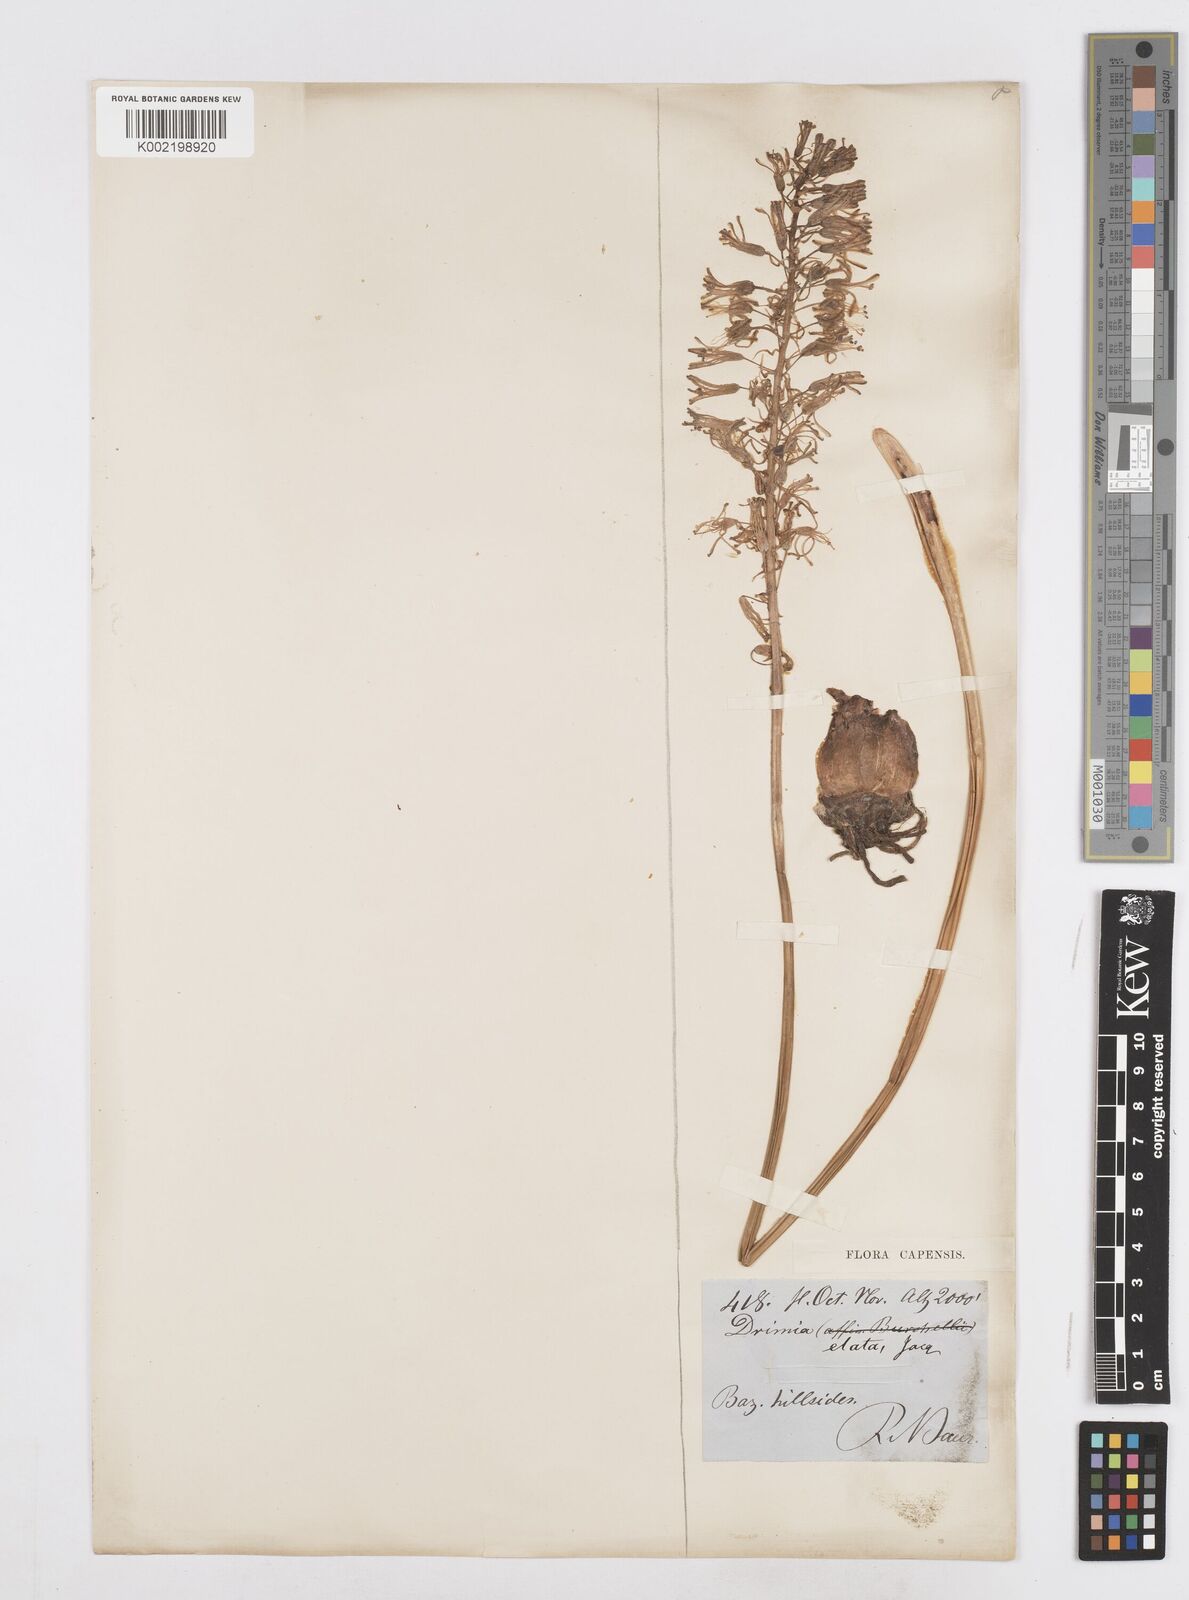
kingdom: Plantae
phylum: Tracheophyta
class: Liliopsida
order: Asparagales
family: Asparagaceae
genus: Drimia
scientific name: Drimia elata
